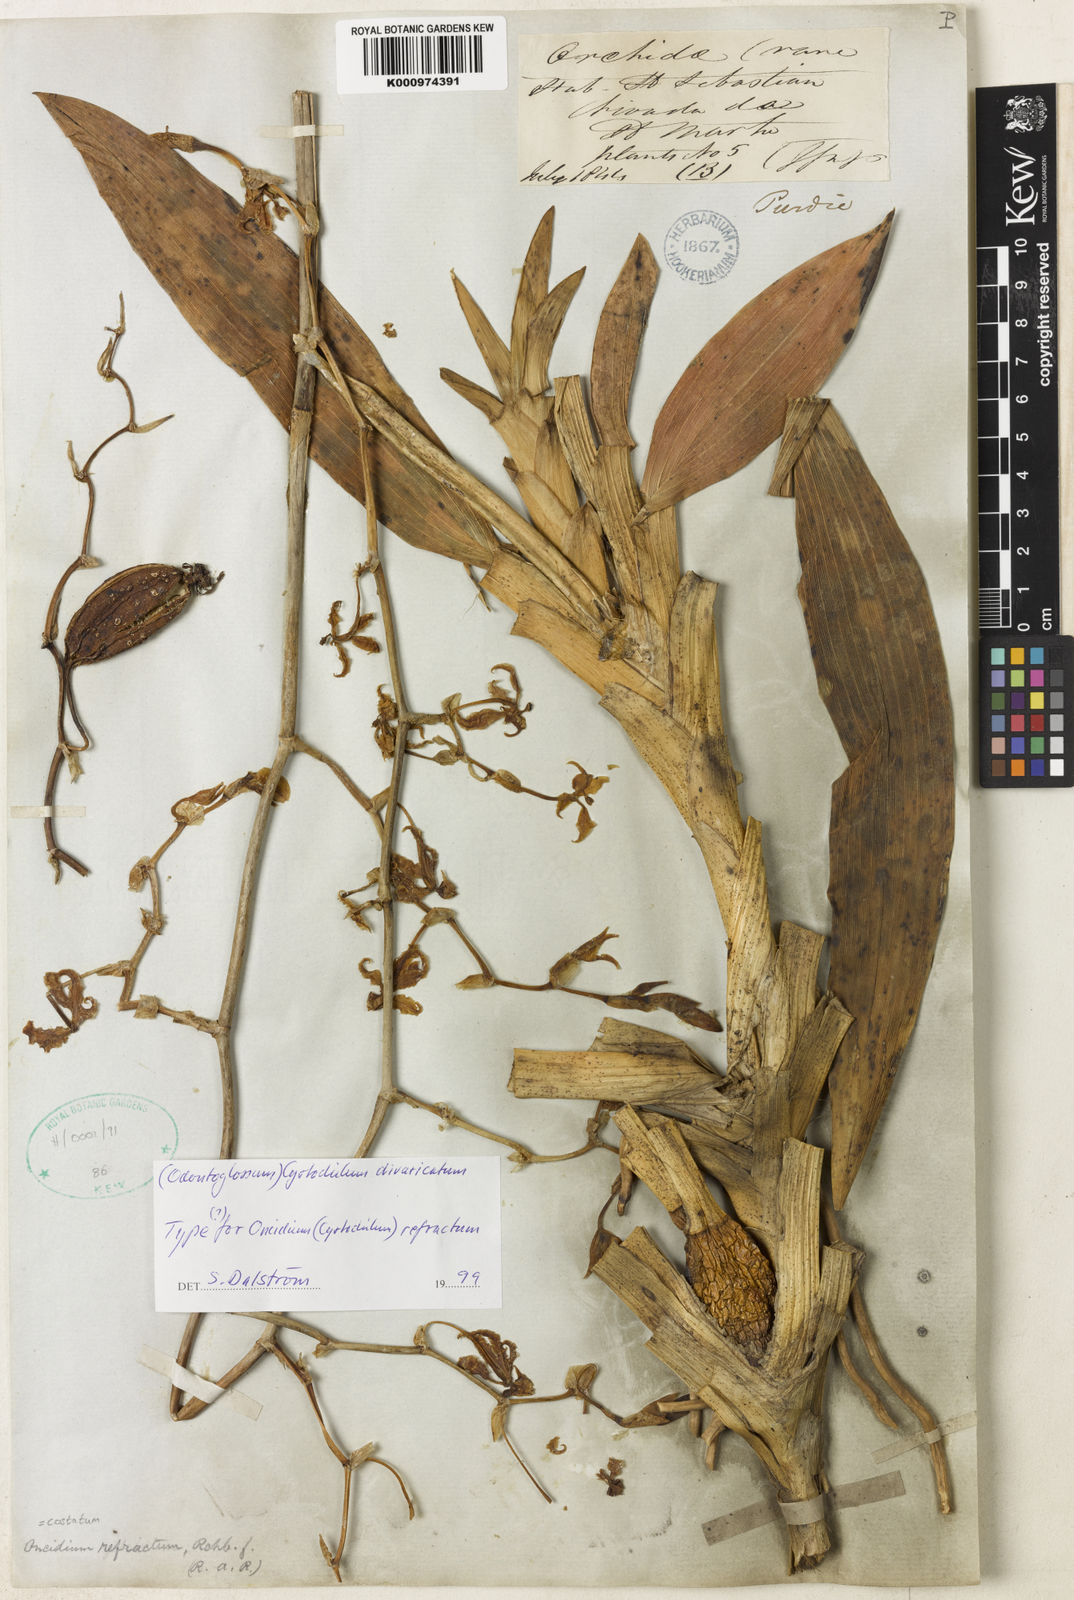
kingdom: Plantae
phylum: Tracheophyta
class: Liliopsida
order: Asparagales
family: Orchidaceae
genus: Cyrtochilum
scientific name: Cyrtochilum
